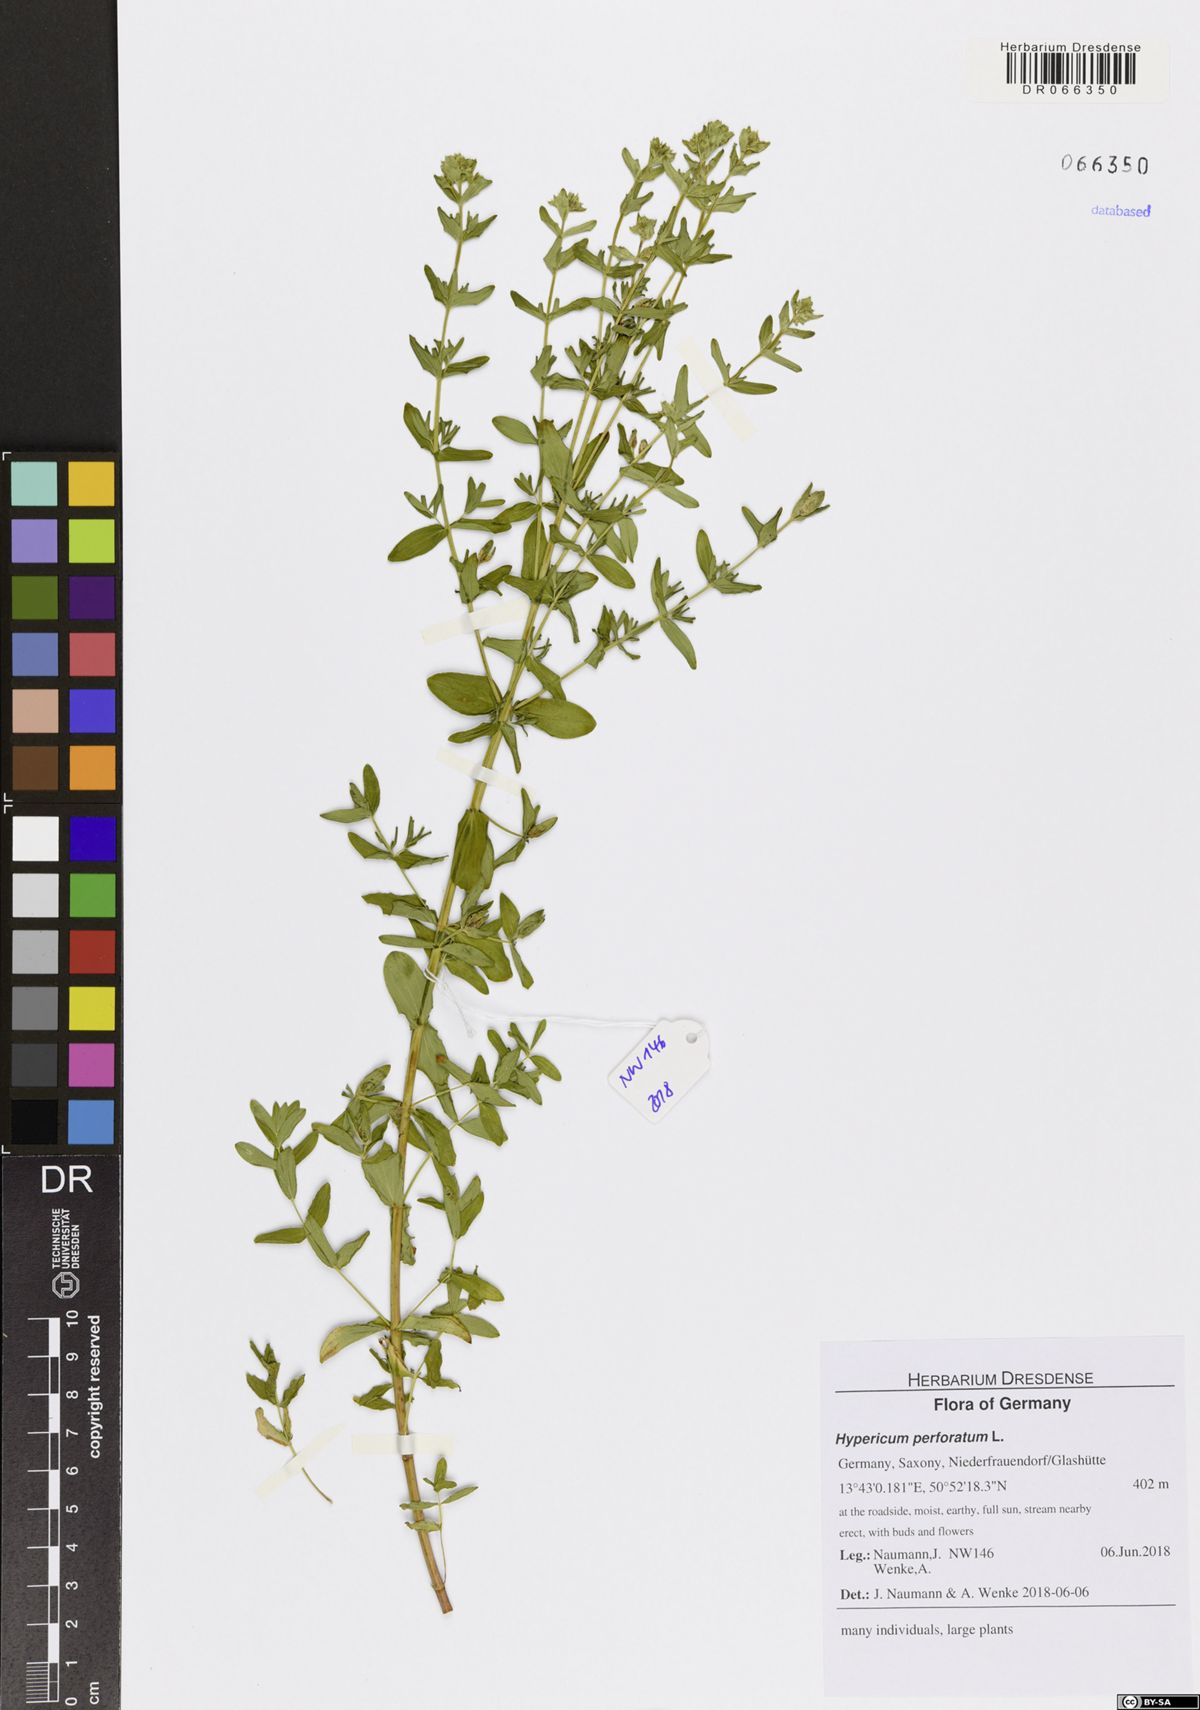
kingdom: Plantae
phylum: Tracheophyta
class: Magnoliopsida
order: Malpighiales
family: Hypericaceae
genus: Hypericum
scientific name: Hypericum perforatum
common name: Common st. johnswort
